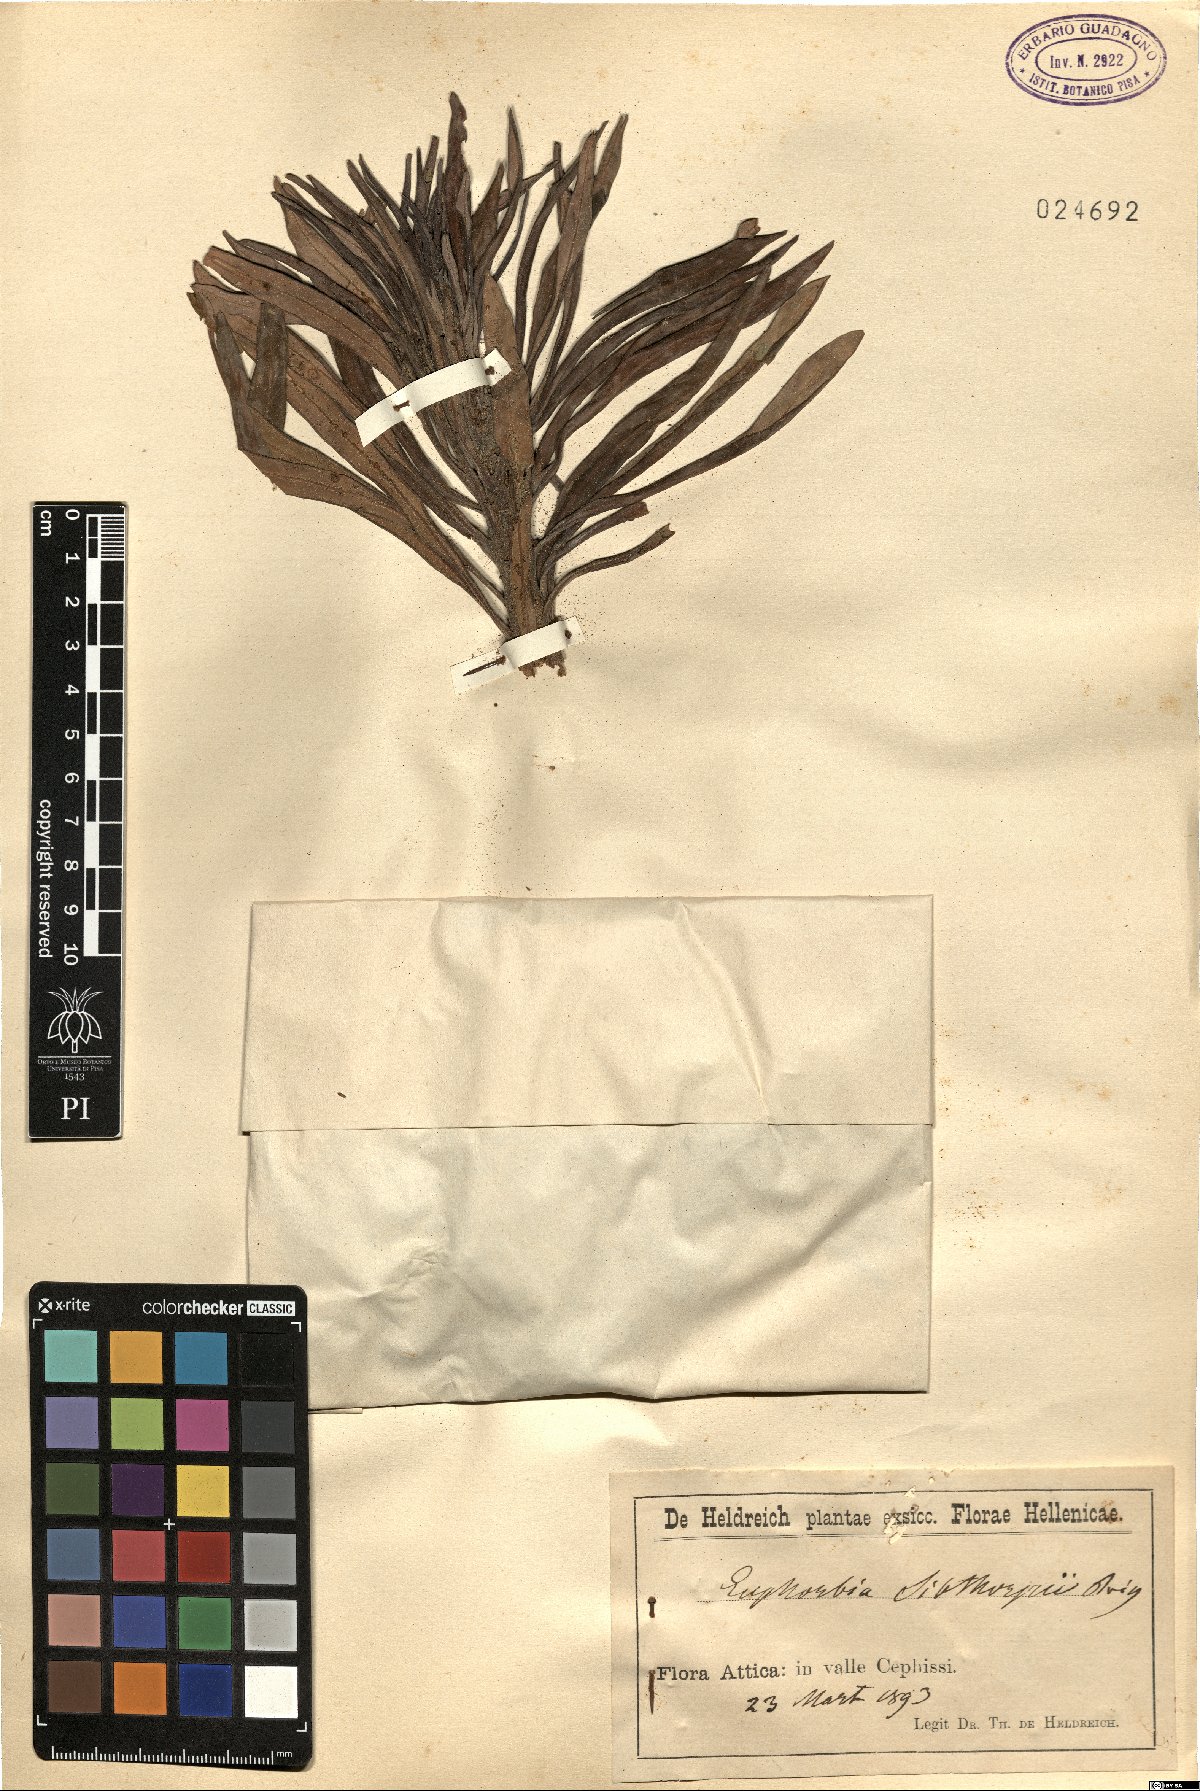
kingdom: Plantae
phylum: Tracheophyta
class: Magnoliopsida
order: Malpighiales
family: Euphorbiaceae
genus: Euphorbia
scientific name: Euphorbia characias
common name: Mediterranean spurge
